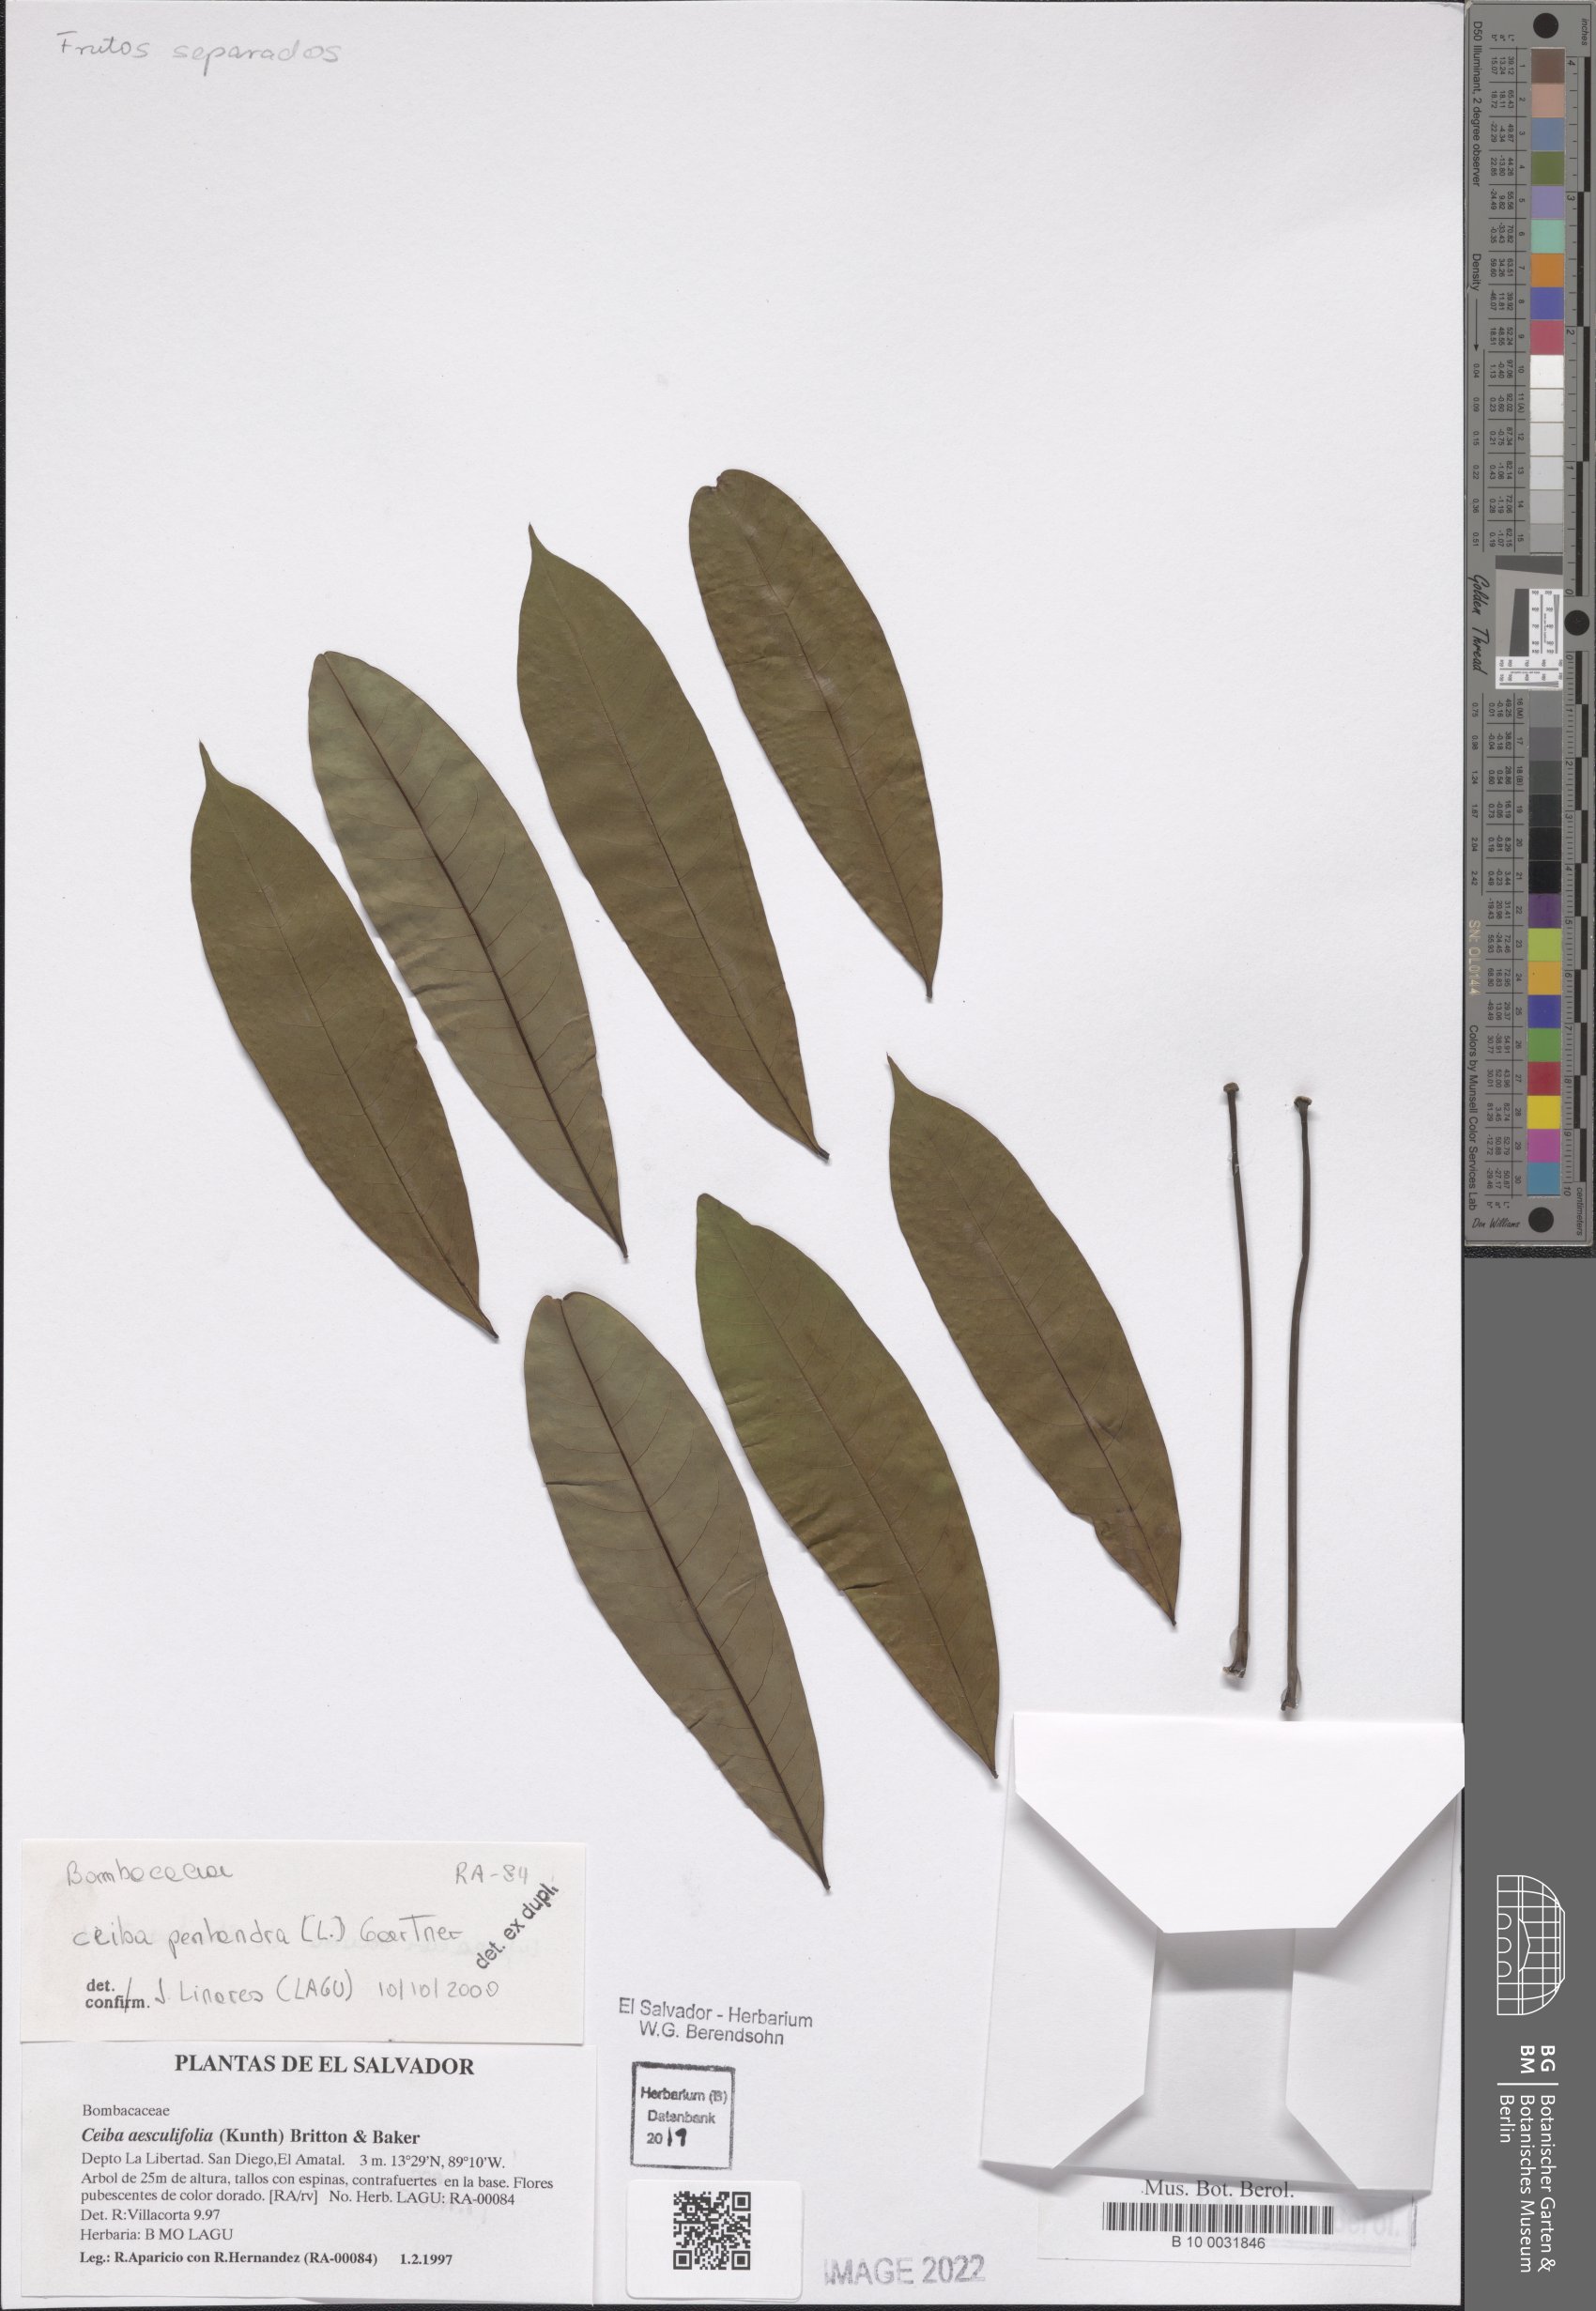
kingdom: Plantae
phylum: Tracheophyta
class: Magnoliopsida
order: Malvales
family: Malvaceae
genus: Ceiba
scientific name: Ceiba pentandra
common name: Kapok
